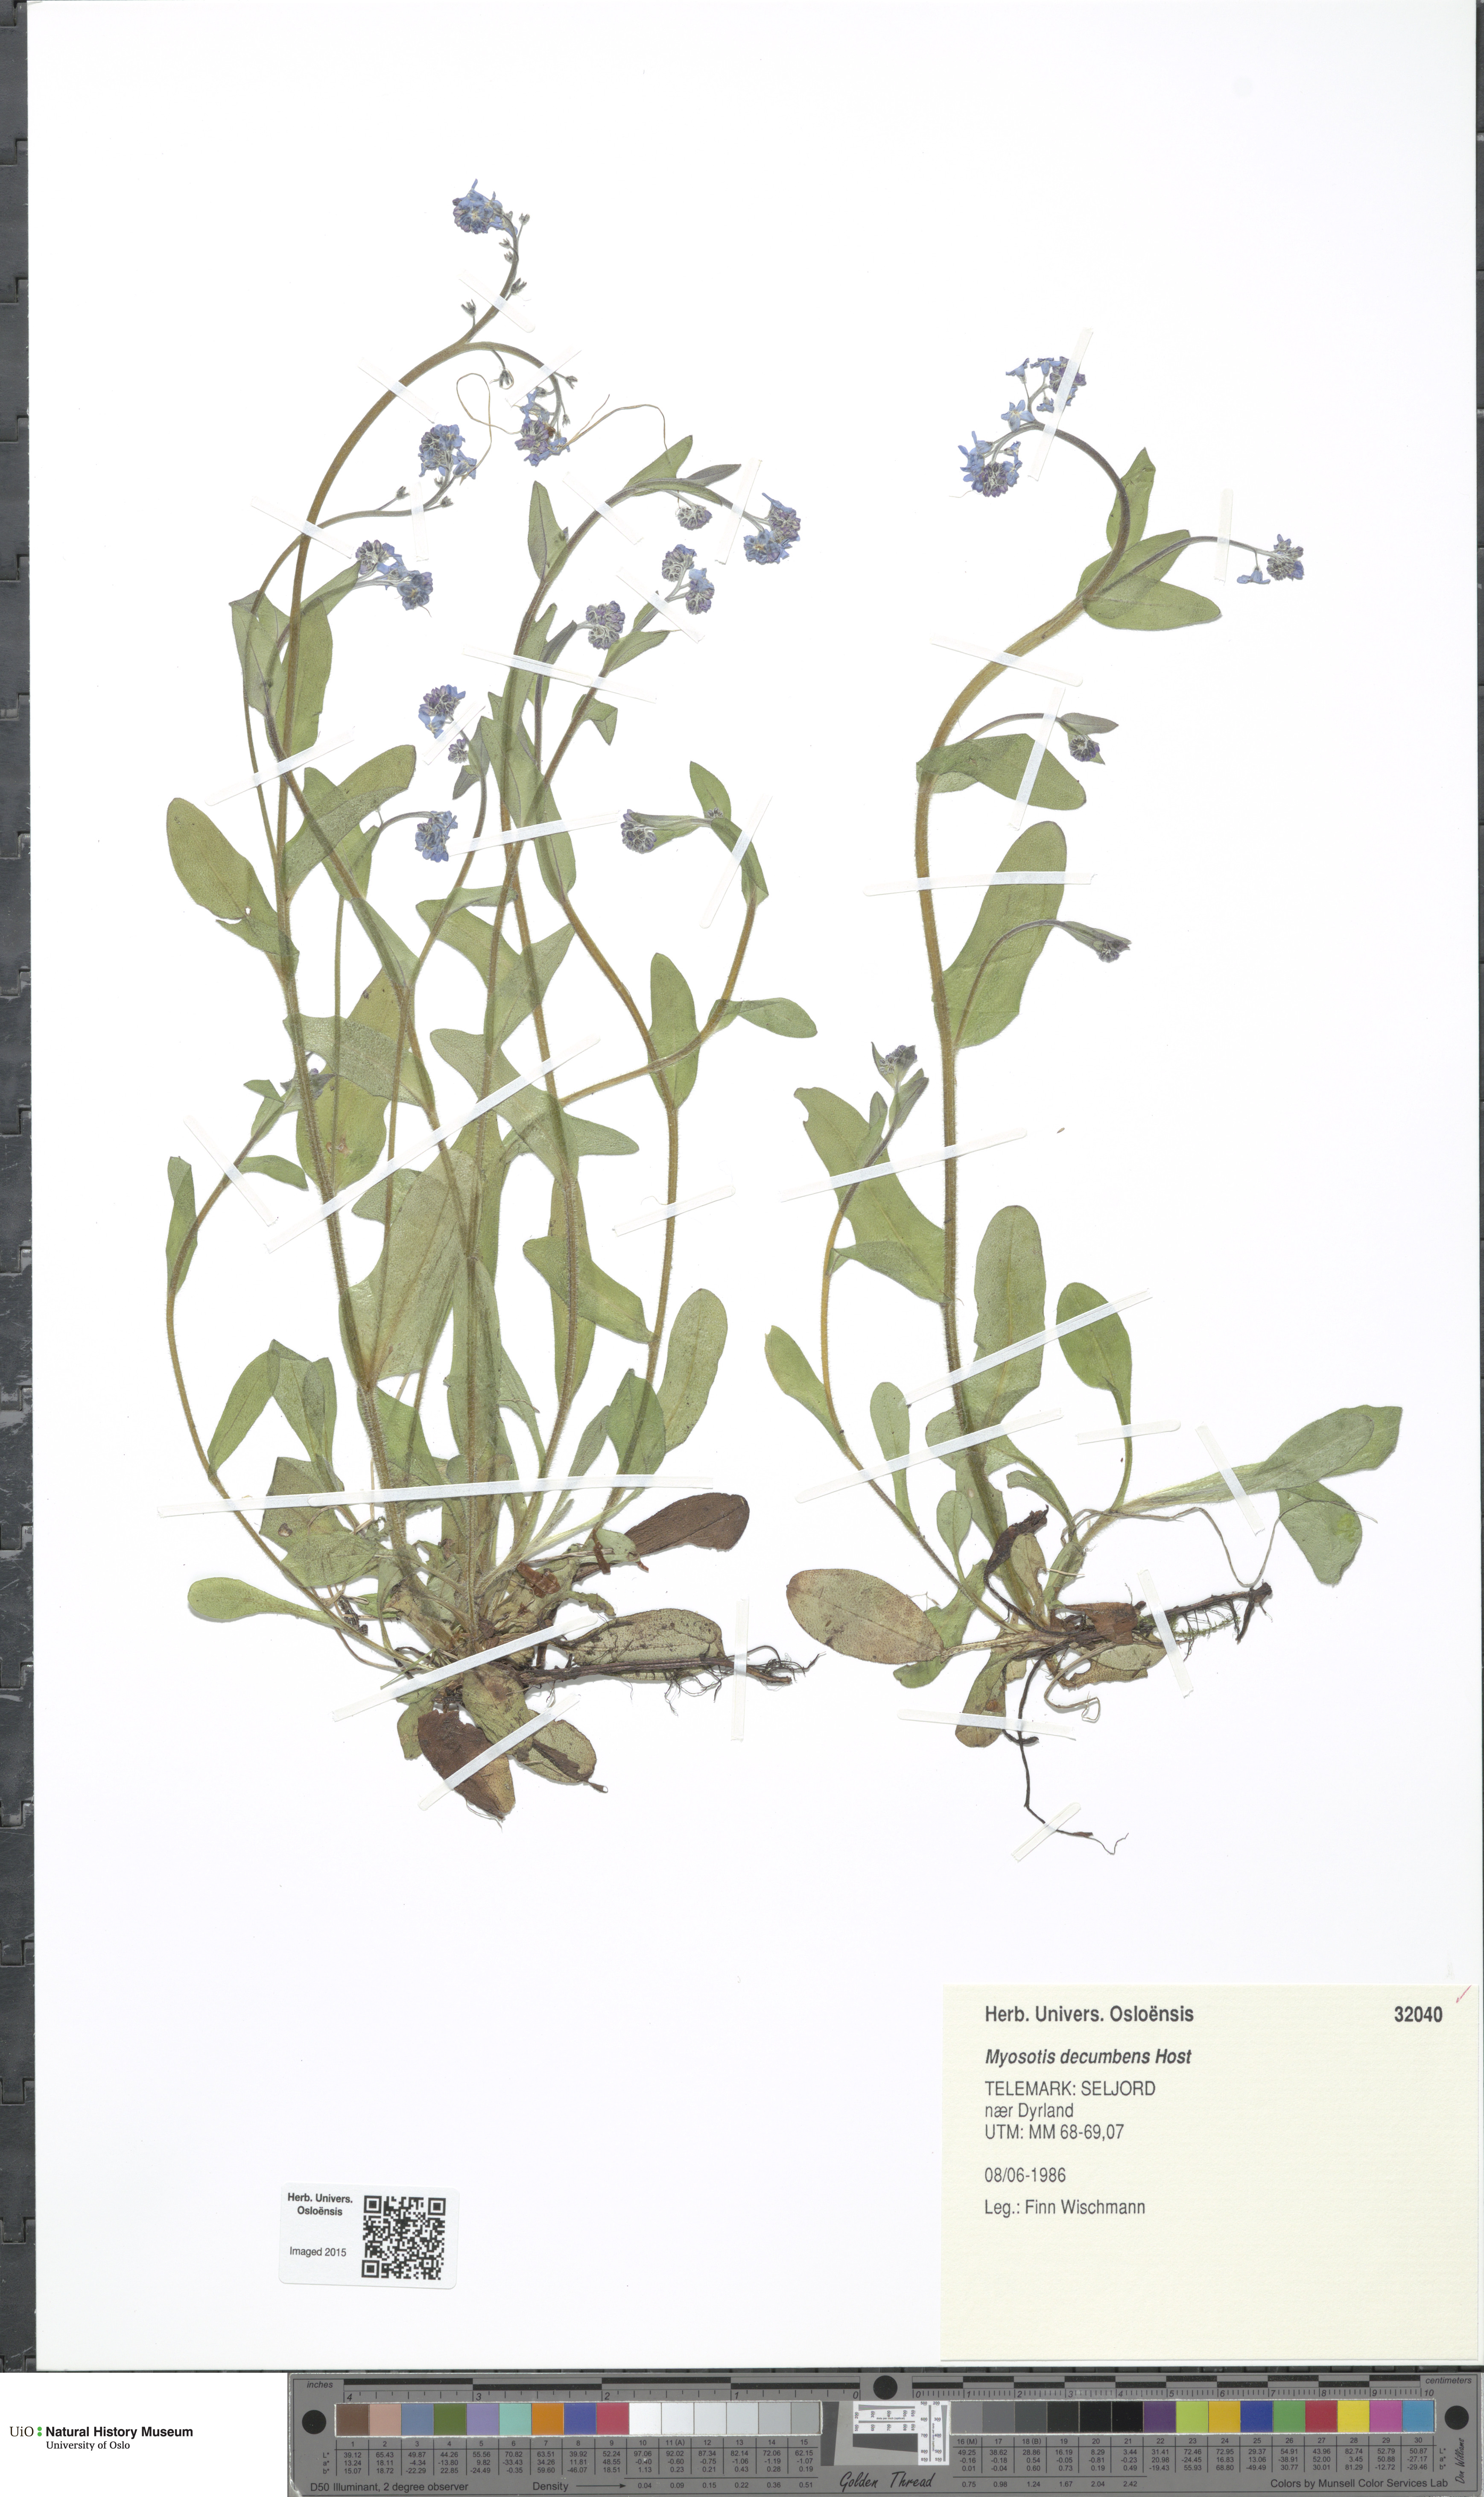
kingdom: Plantae
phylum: Tracheophyta
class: Magnoliopsida
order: Boraginales
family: Boraginaceae
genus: Myosotis
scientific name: Myosotis decumbens
